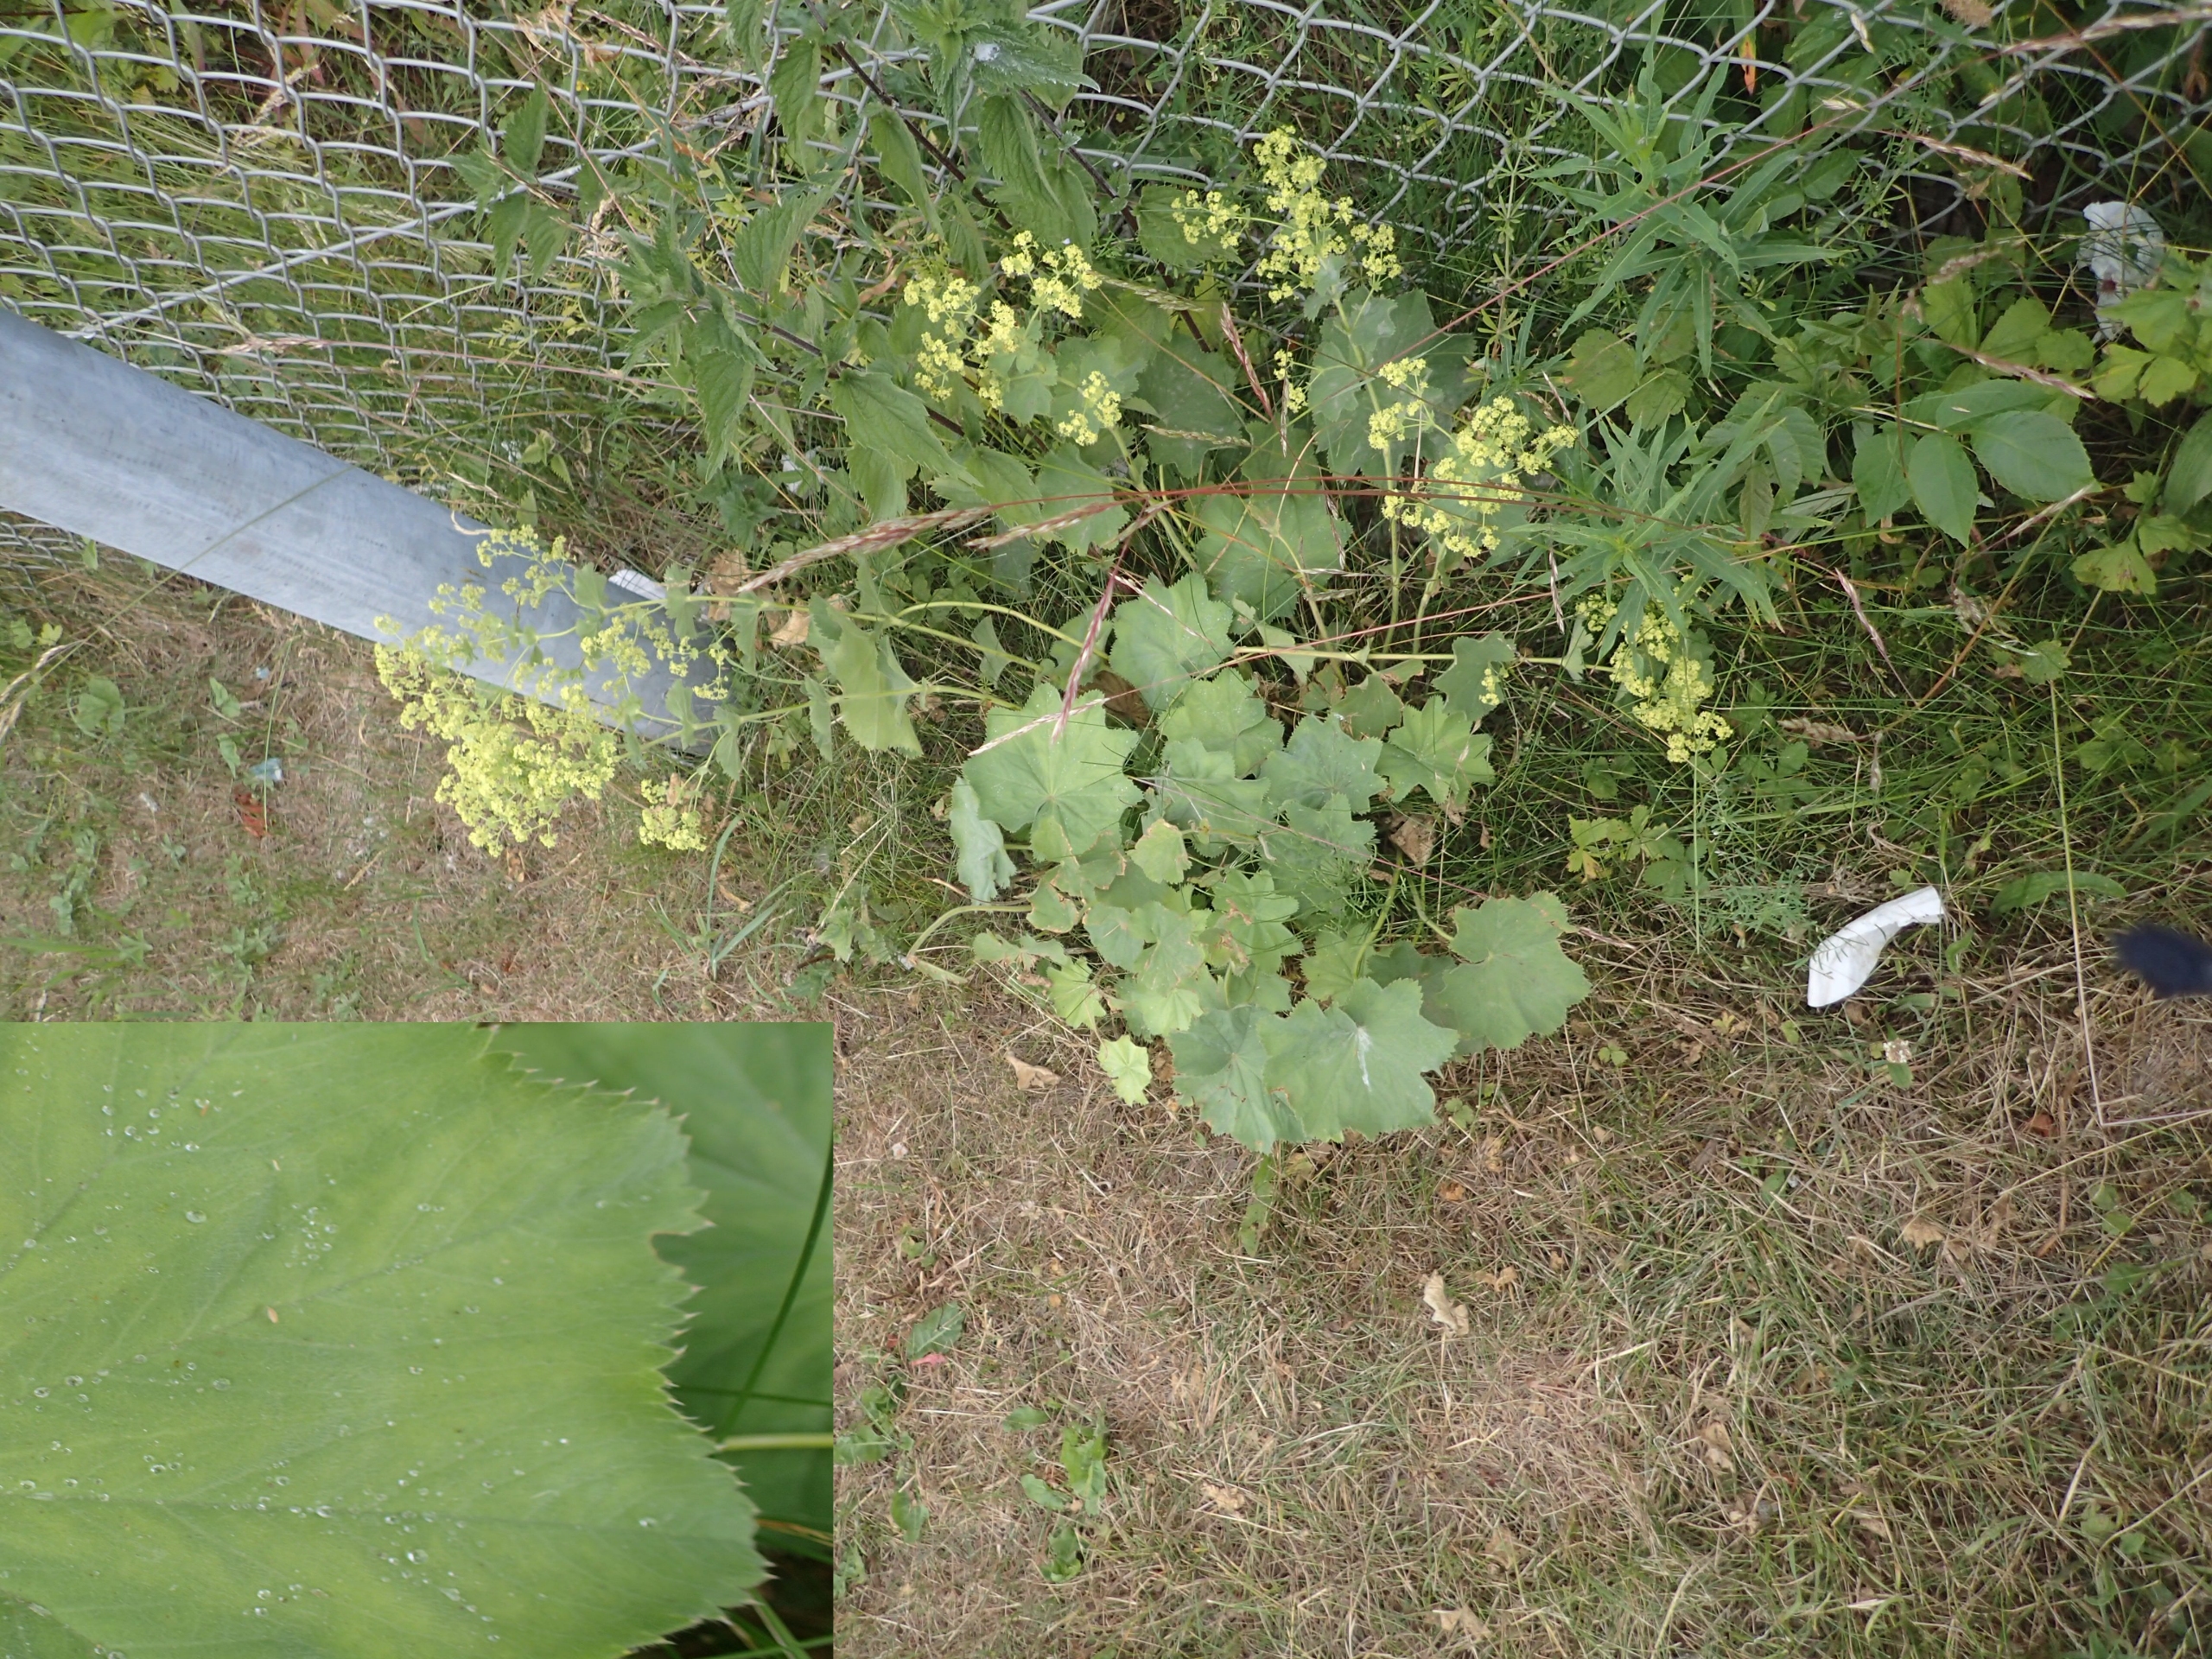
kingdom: Plantae
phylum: Tracheophyta
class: Magnoliopsida
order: Rosales
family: Rosaceae
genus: Alchemilla
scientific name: Alchemilla mollis
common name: Lådden løvefod
